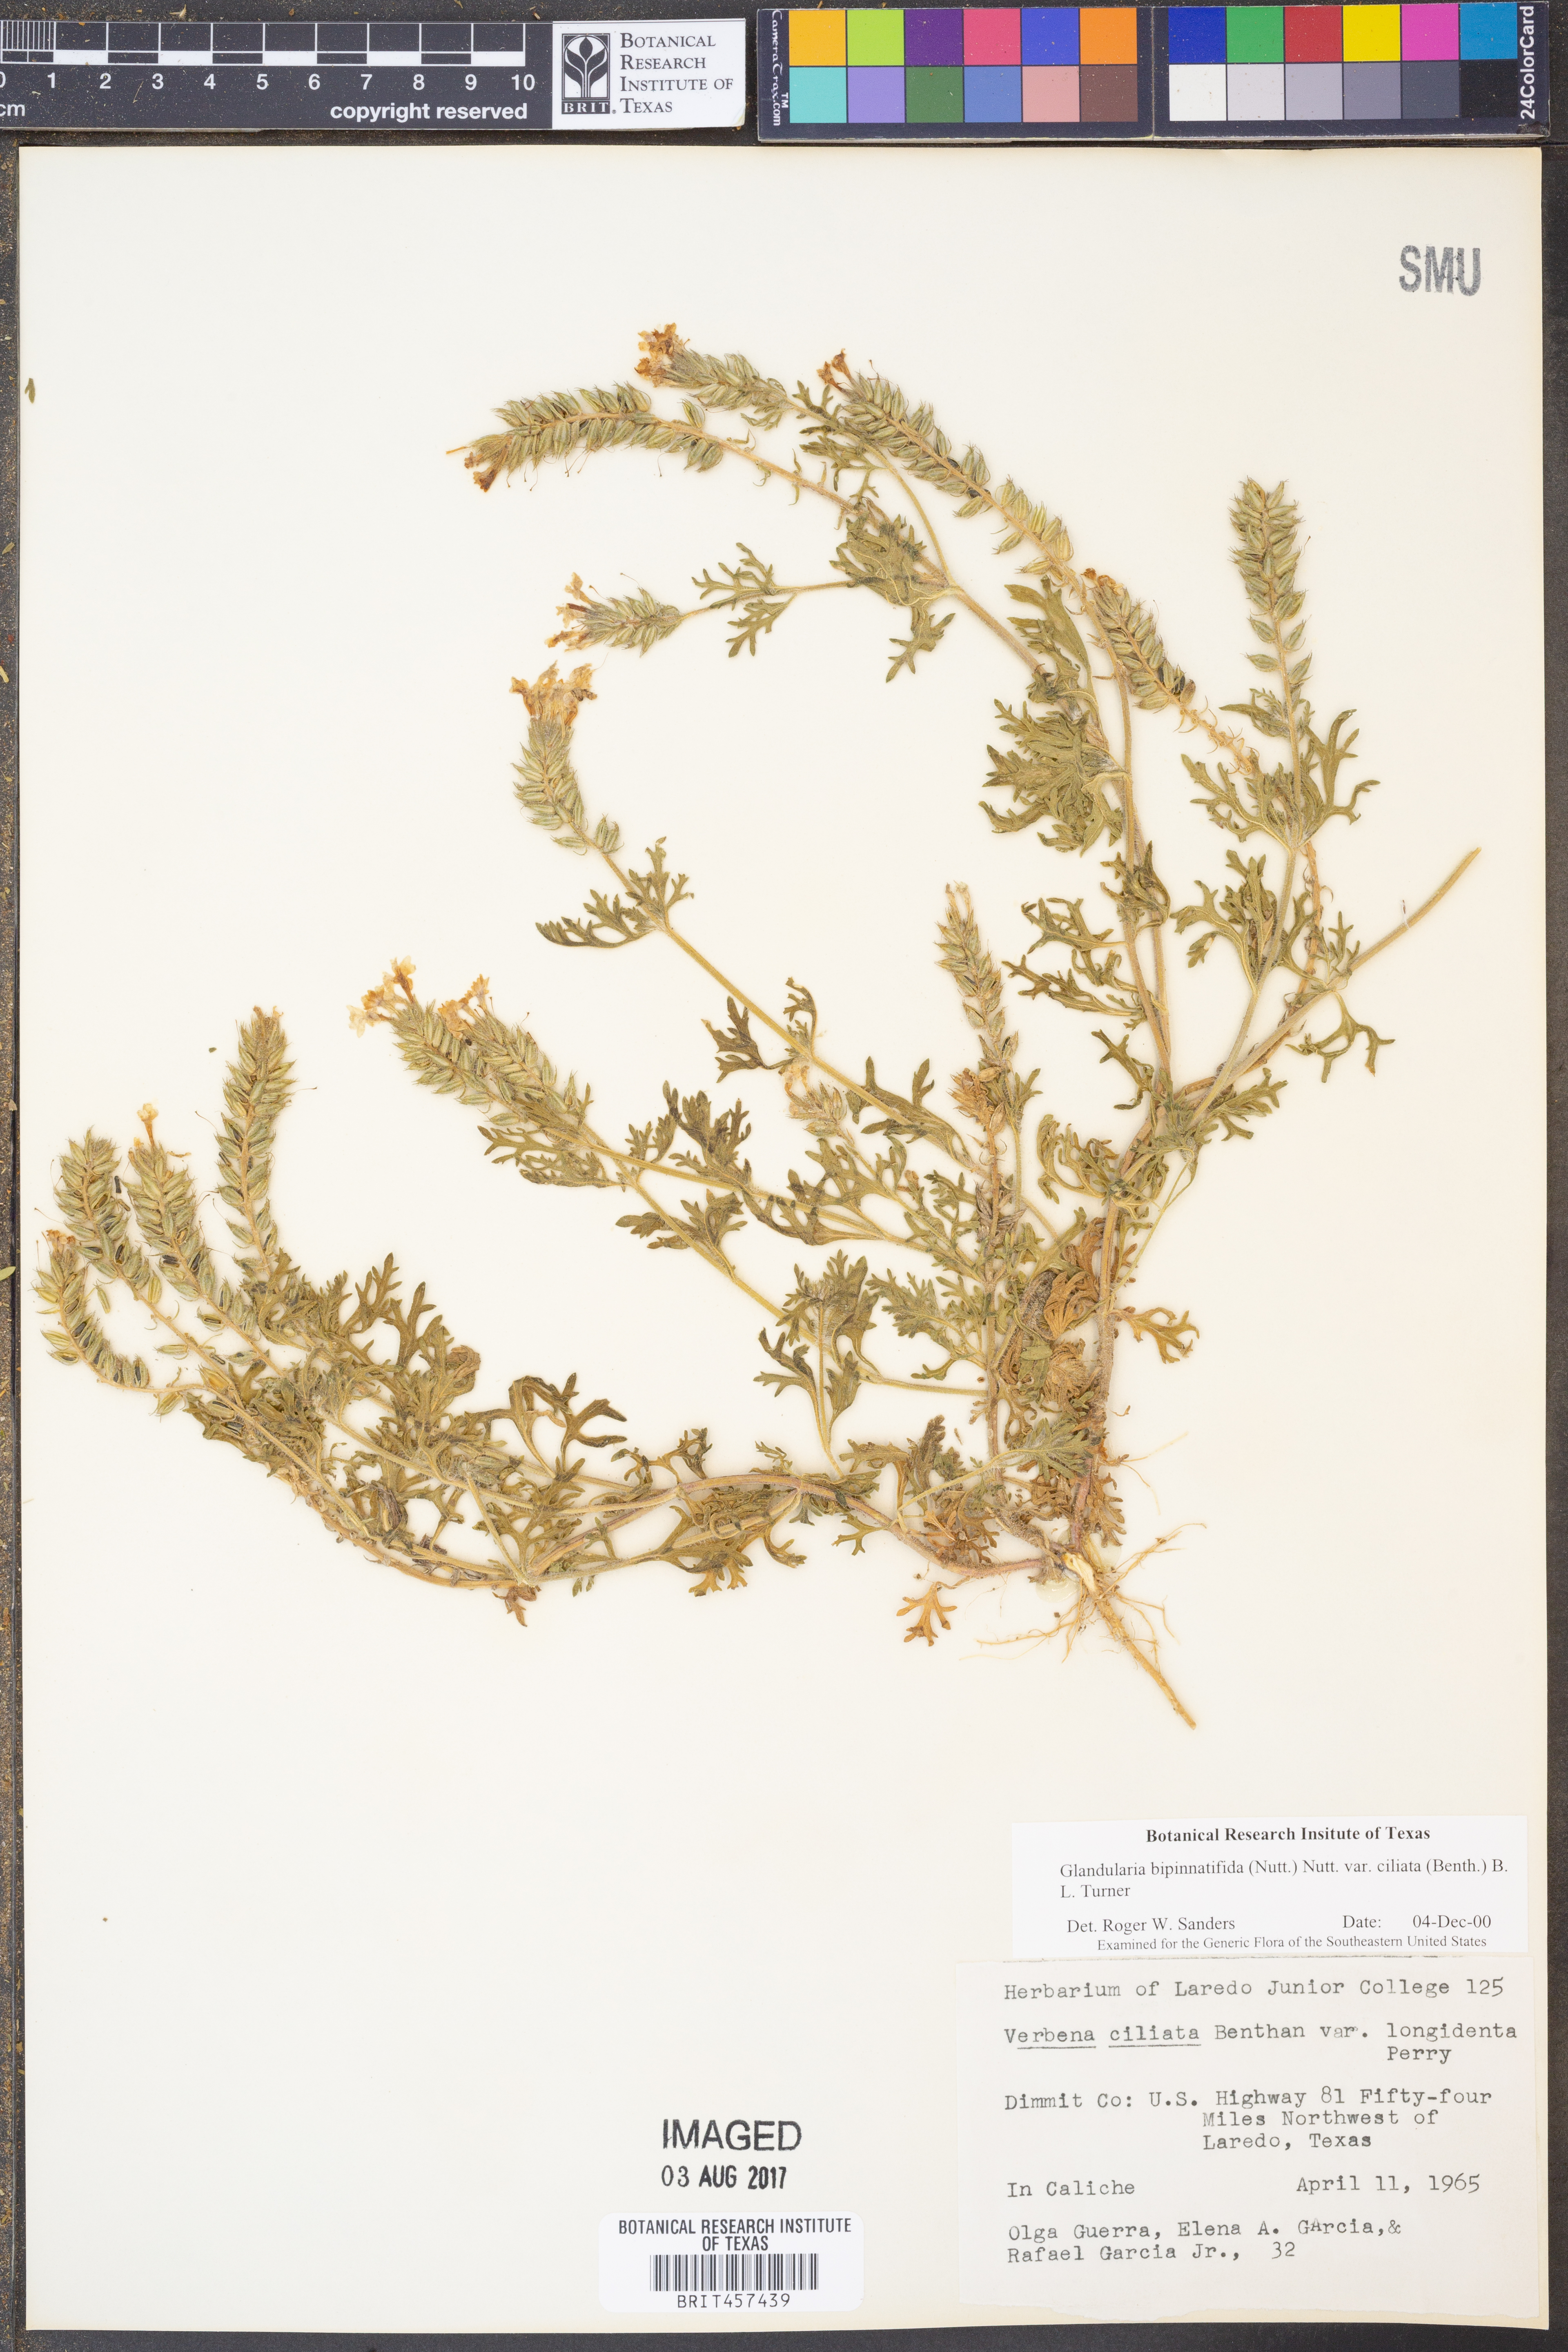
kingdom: Plantae
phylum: Tracheophyta
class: Magnoliopsida
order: Lamiales
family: Verbenaceae
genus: Verbena
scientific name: Verbena bipinnatifida
